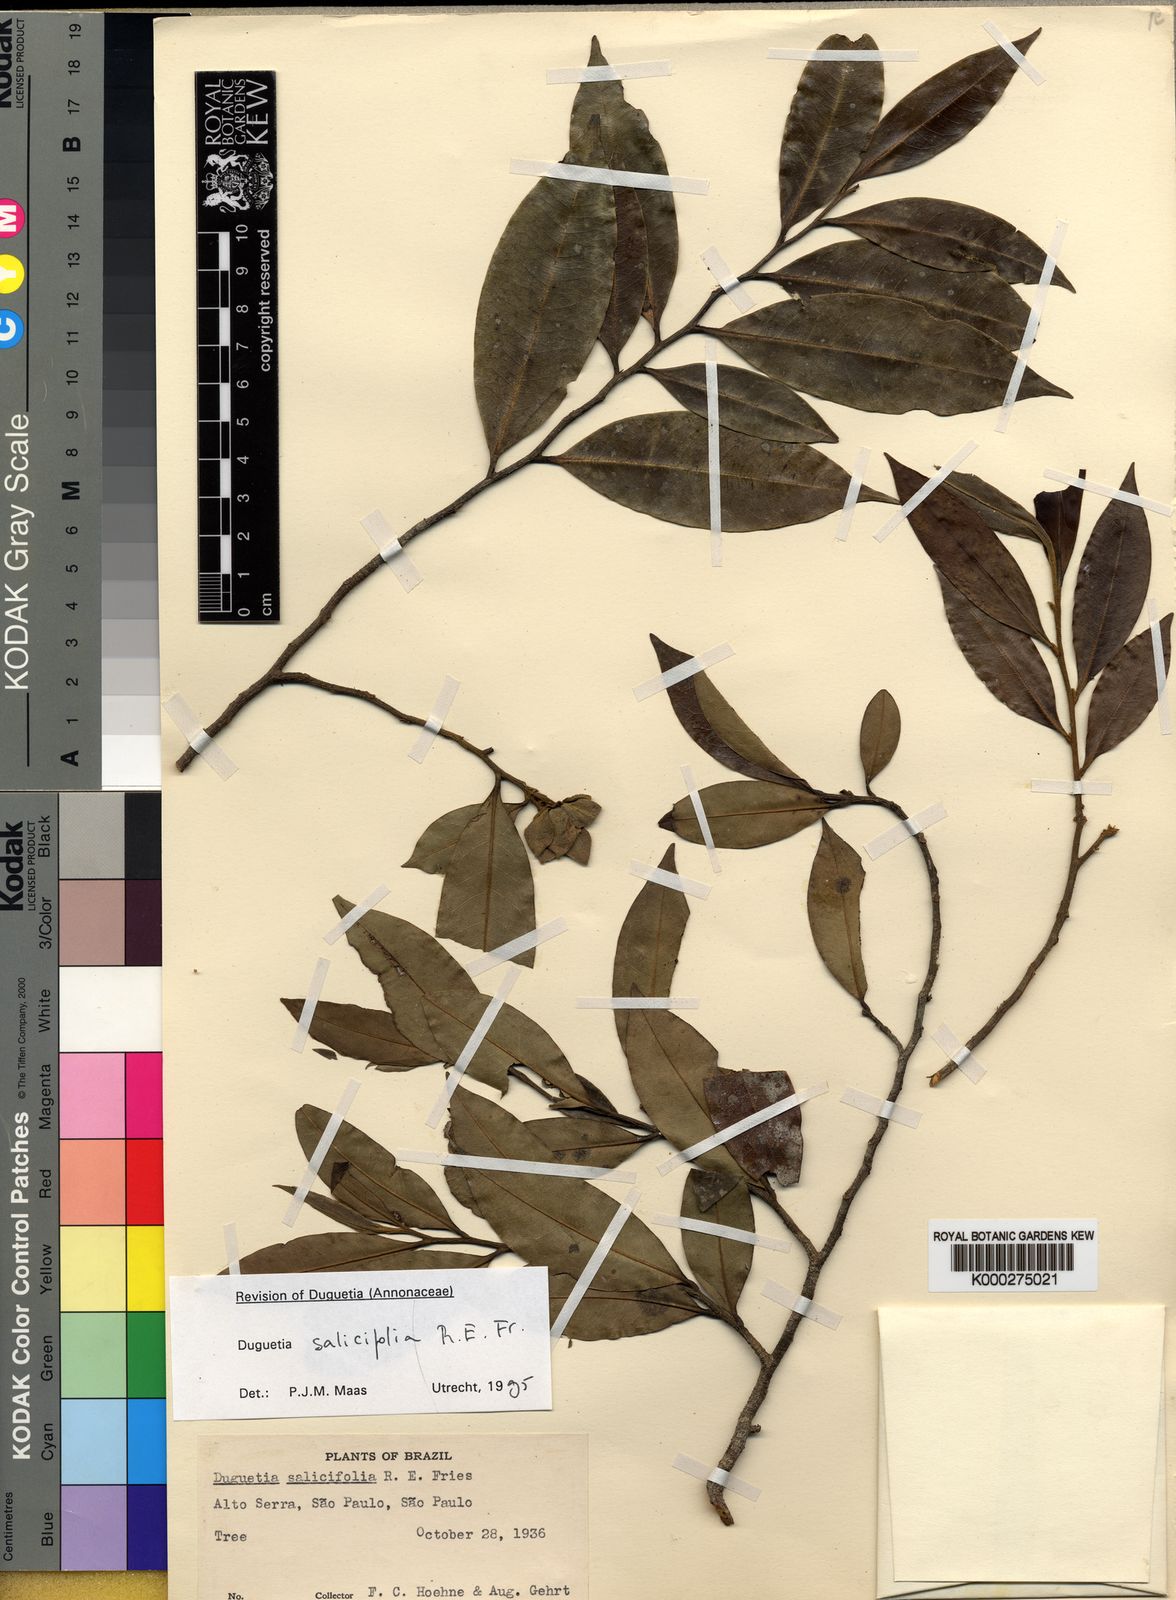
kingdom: Plantae
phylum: Tracheophyta
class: Magnoliopsida
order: Magnoliales
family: Annonaceae
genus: Duguetia
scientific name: Duguetia salicifolia
